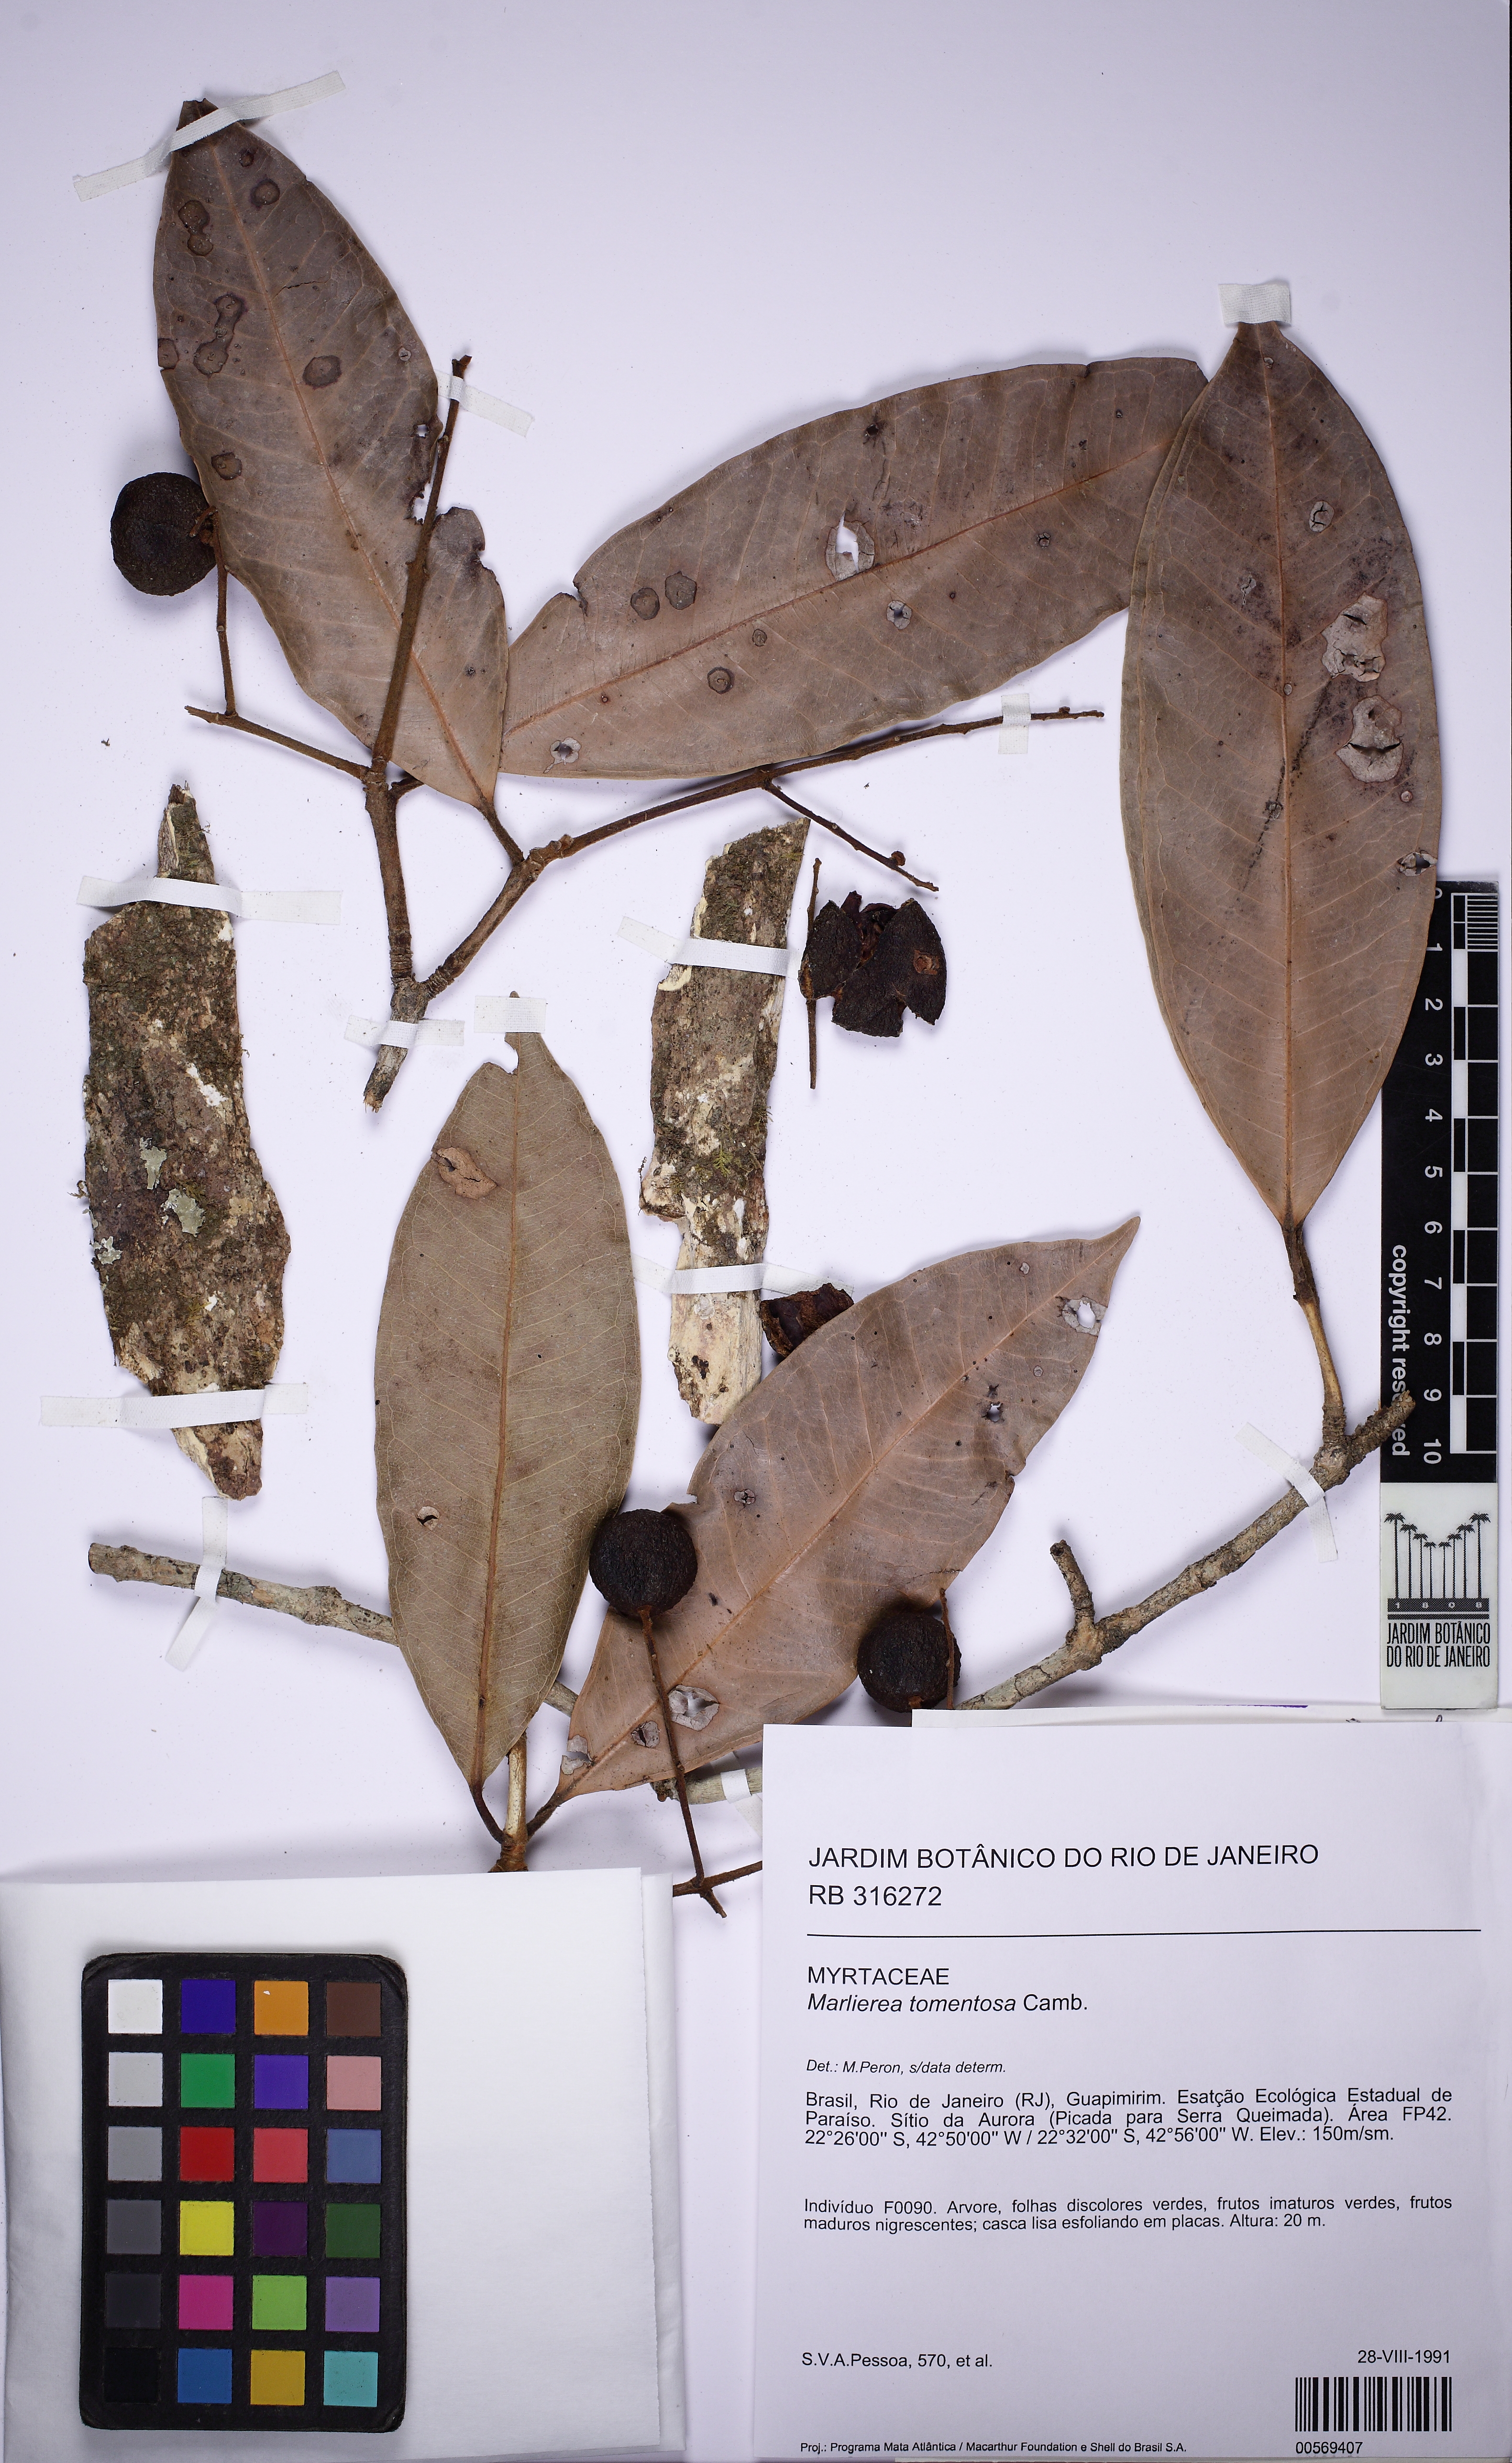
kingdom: Plantae
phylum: Tracheophyta
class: Magnoliopsida
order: Myrtales
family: Myrtaceae
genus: Myrcia
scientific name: Myrcia strigipes
